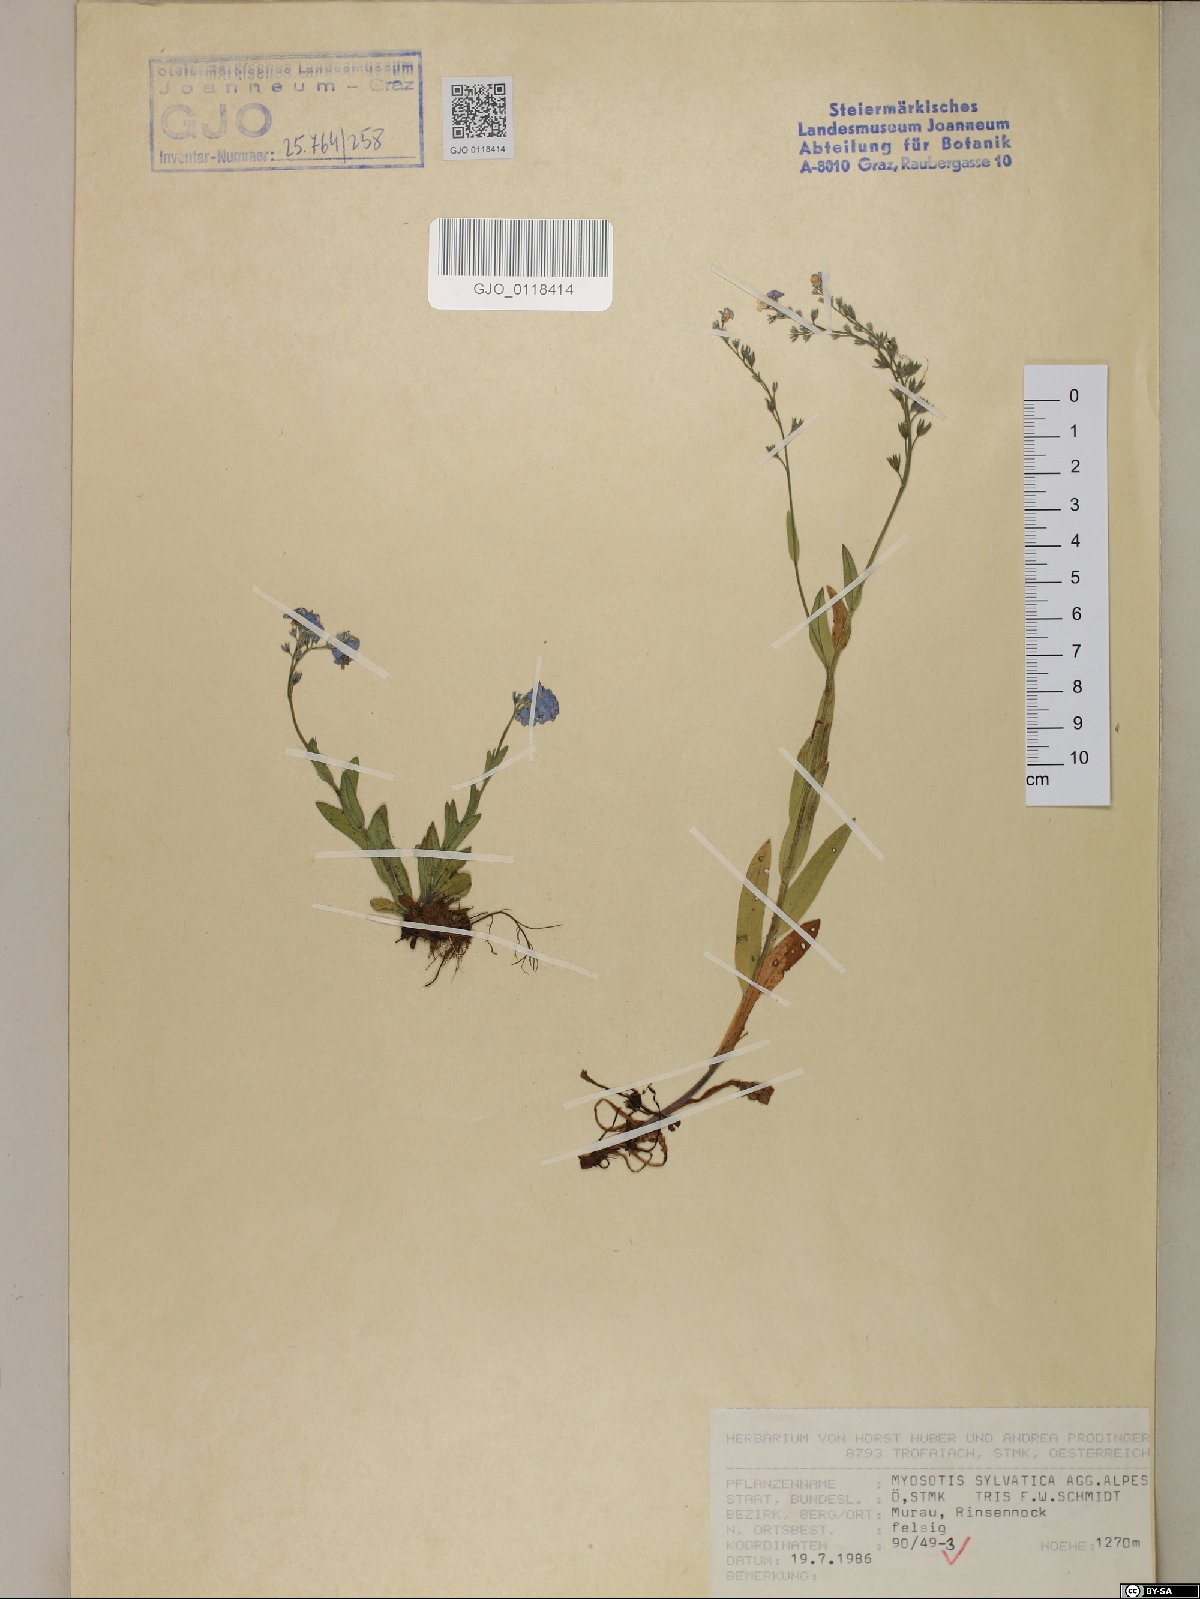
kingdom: Plantae
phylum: Tracheophyta
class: Magnoliopsida
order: Boraginales
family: Boraginaceae
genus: Myosotis
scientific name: Myosotis alpestris
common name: Alpine forget-me-not
